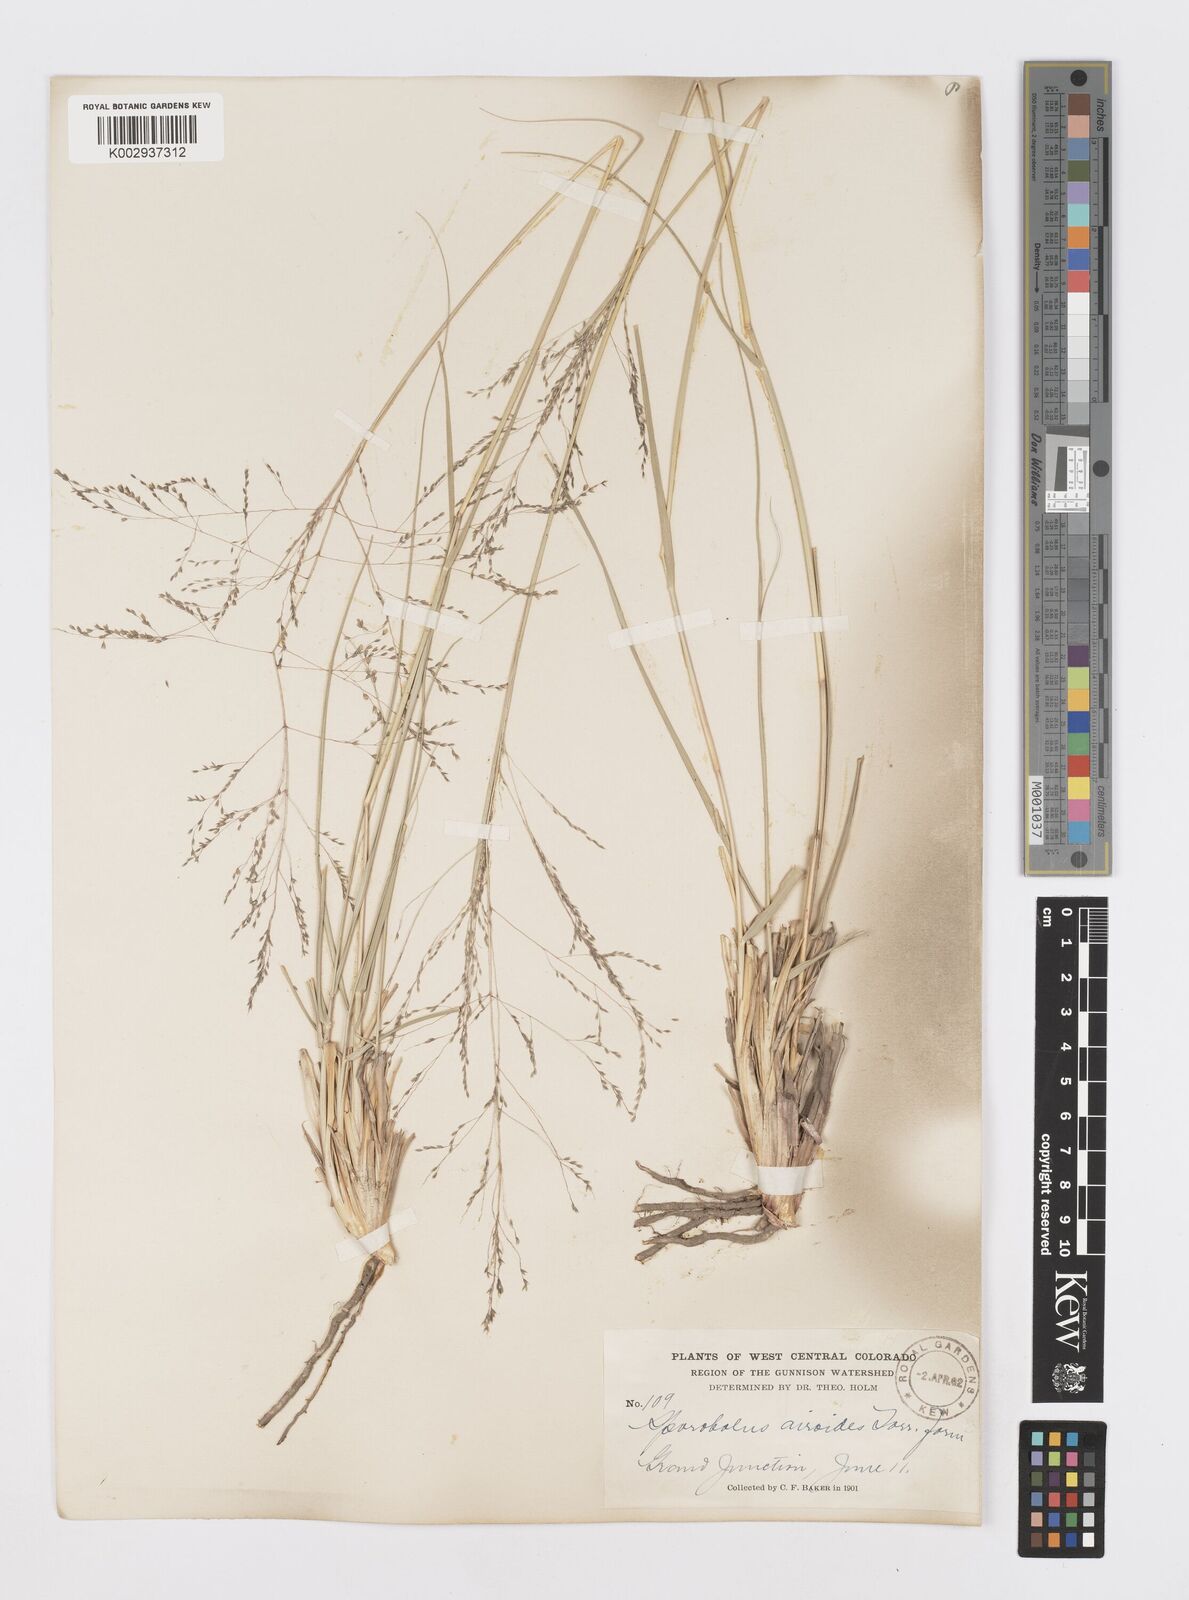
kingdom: Plantae
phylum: Tracheophyta
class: Liliopsida
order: Poales
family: Poaceae
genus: Sporobolus
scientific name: Sporobolus airoides
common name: Alkali sacaton
